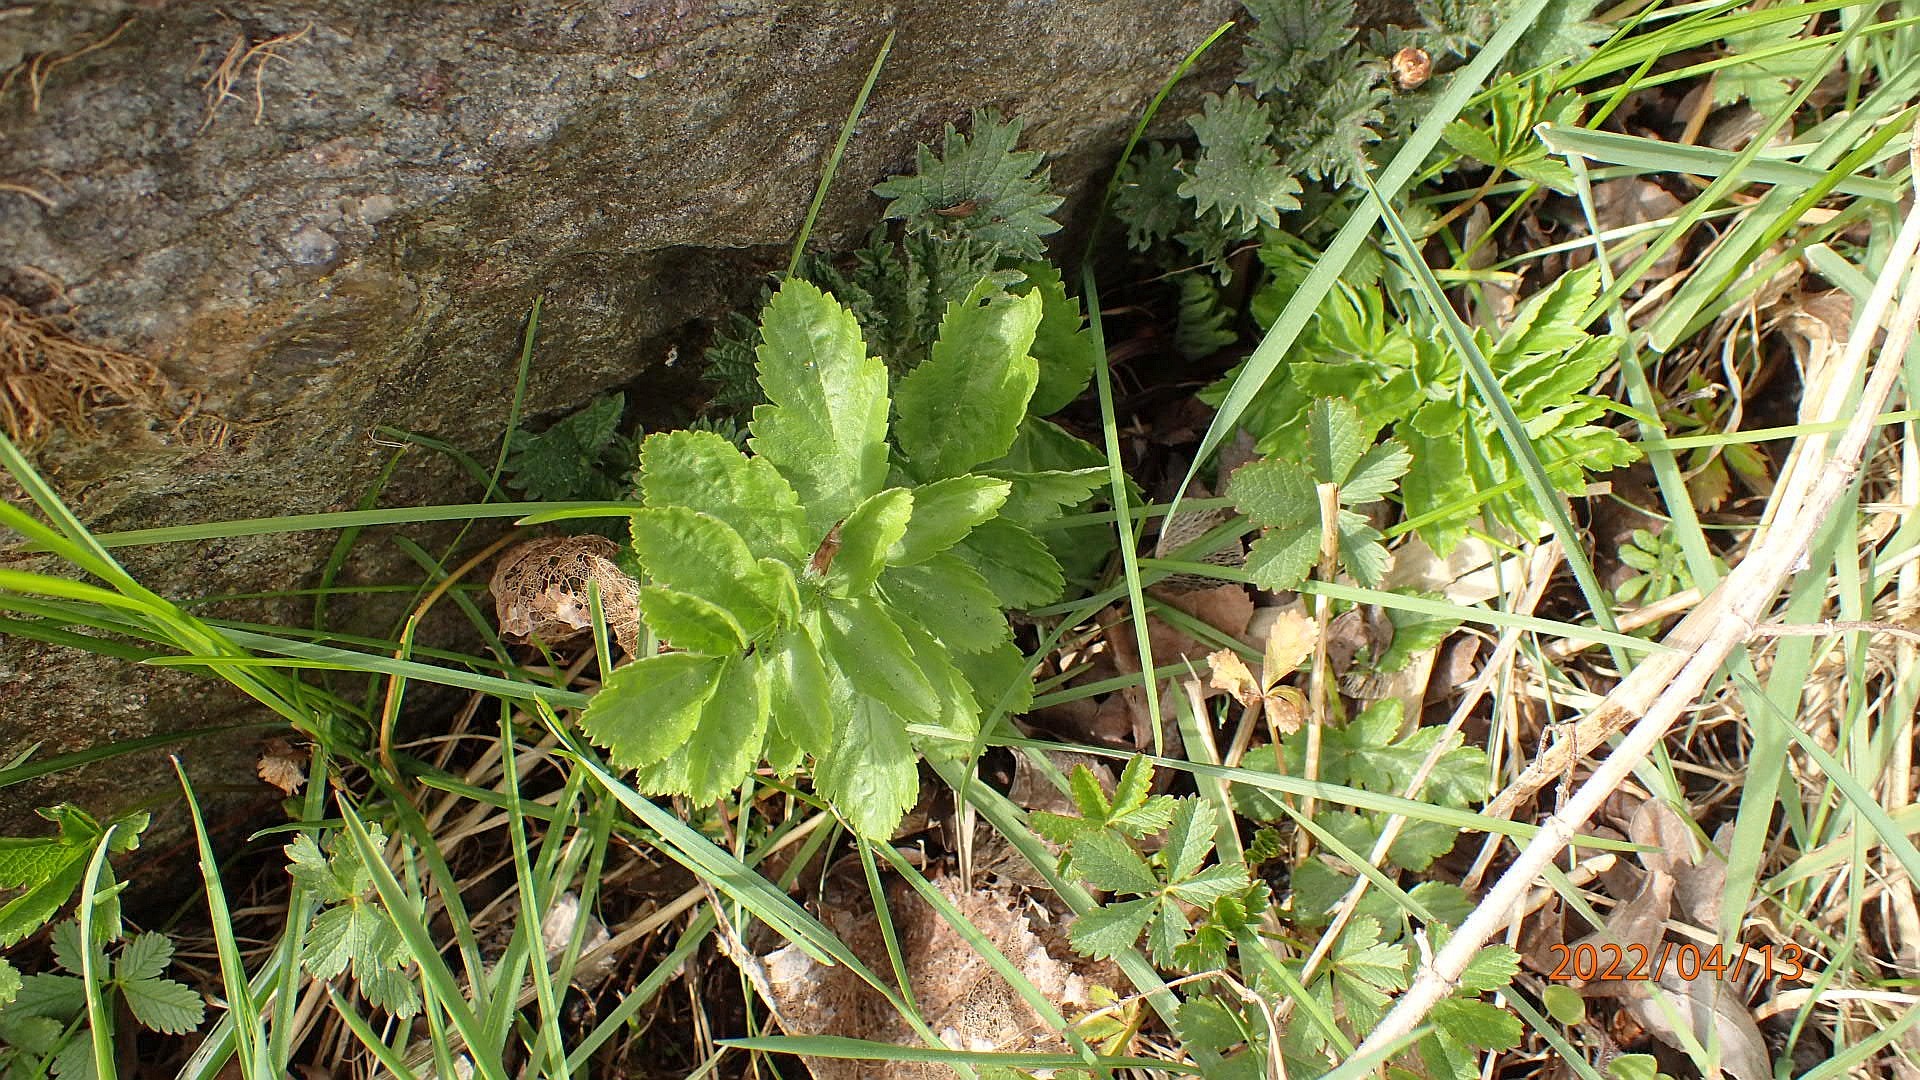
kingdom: Plantae
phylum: Tracheophyta
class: Magnoliopsida
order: Apiales
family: Apiaceae
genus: Pastinaca
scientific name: Pastinaca sativa
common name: Pastinak
